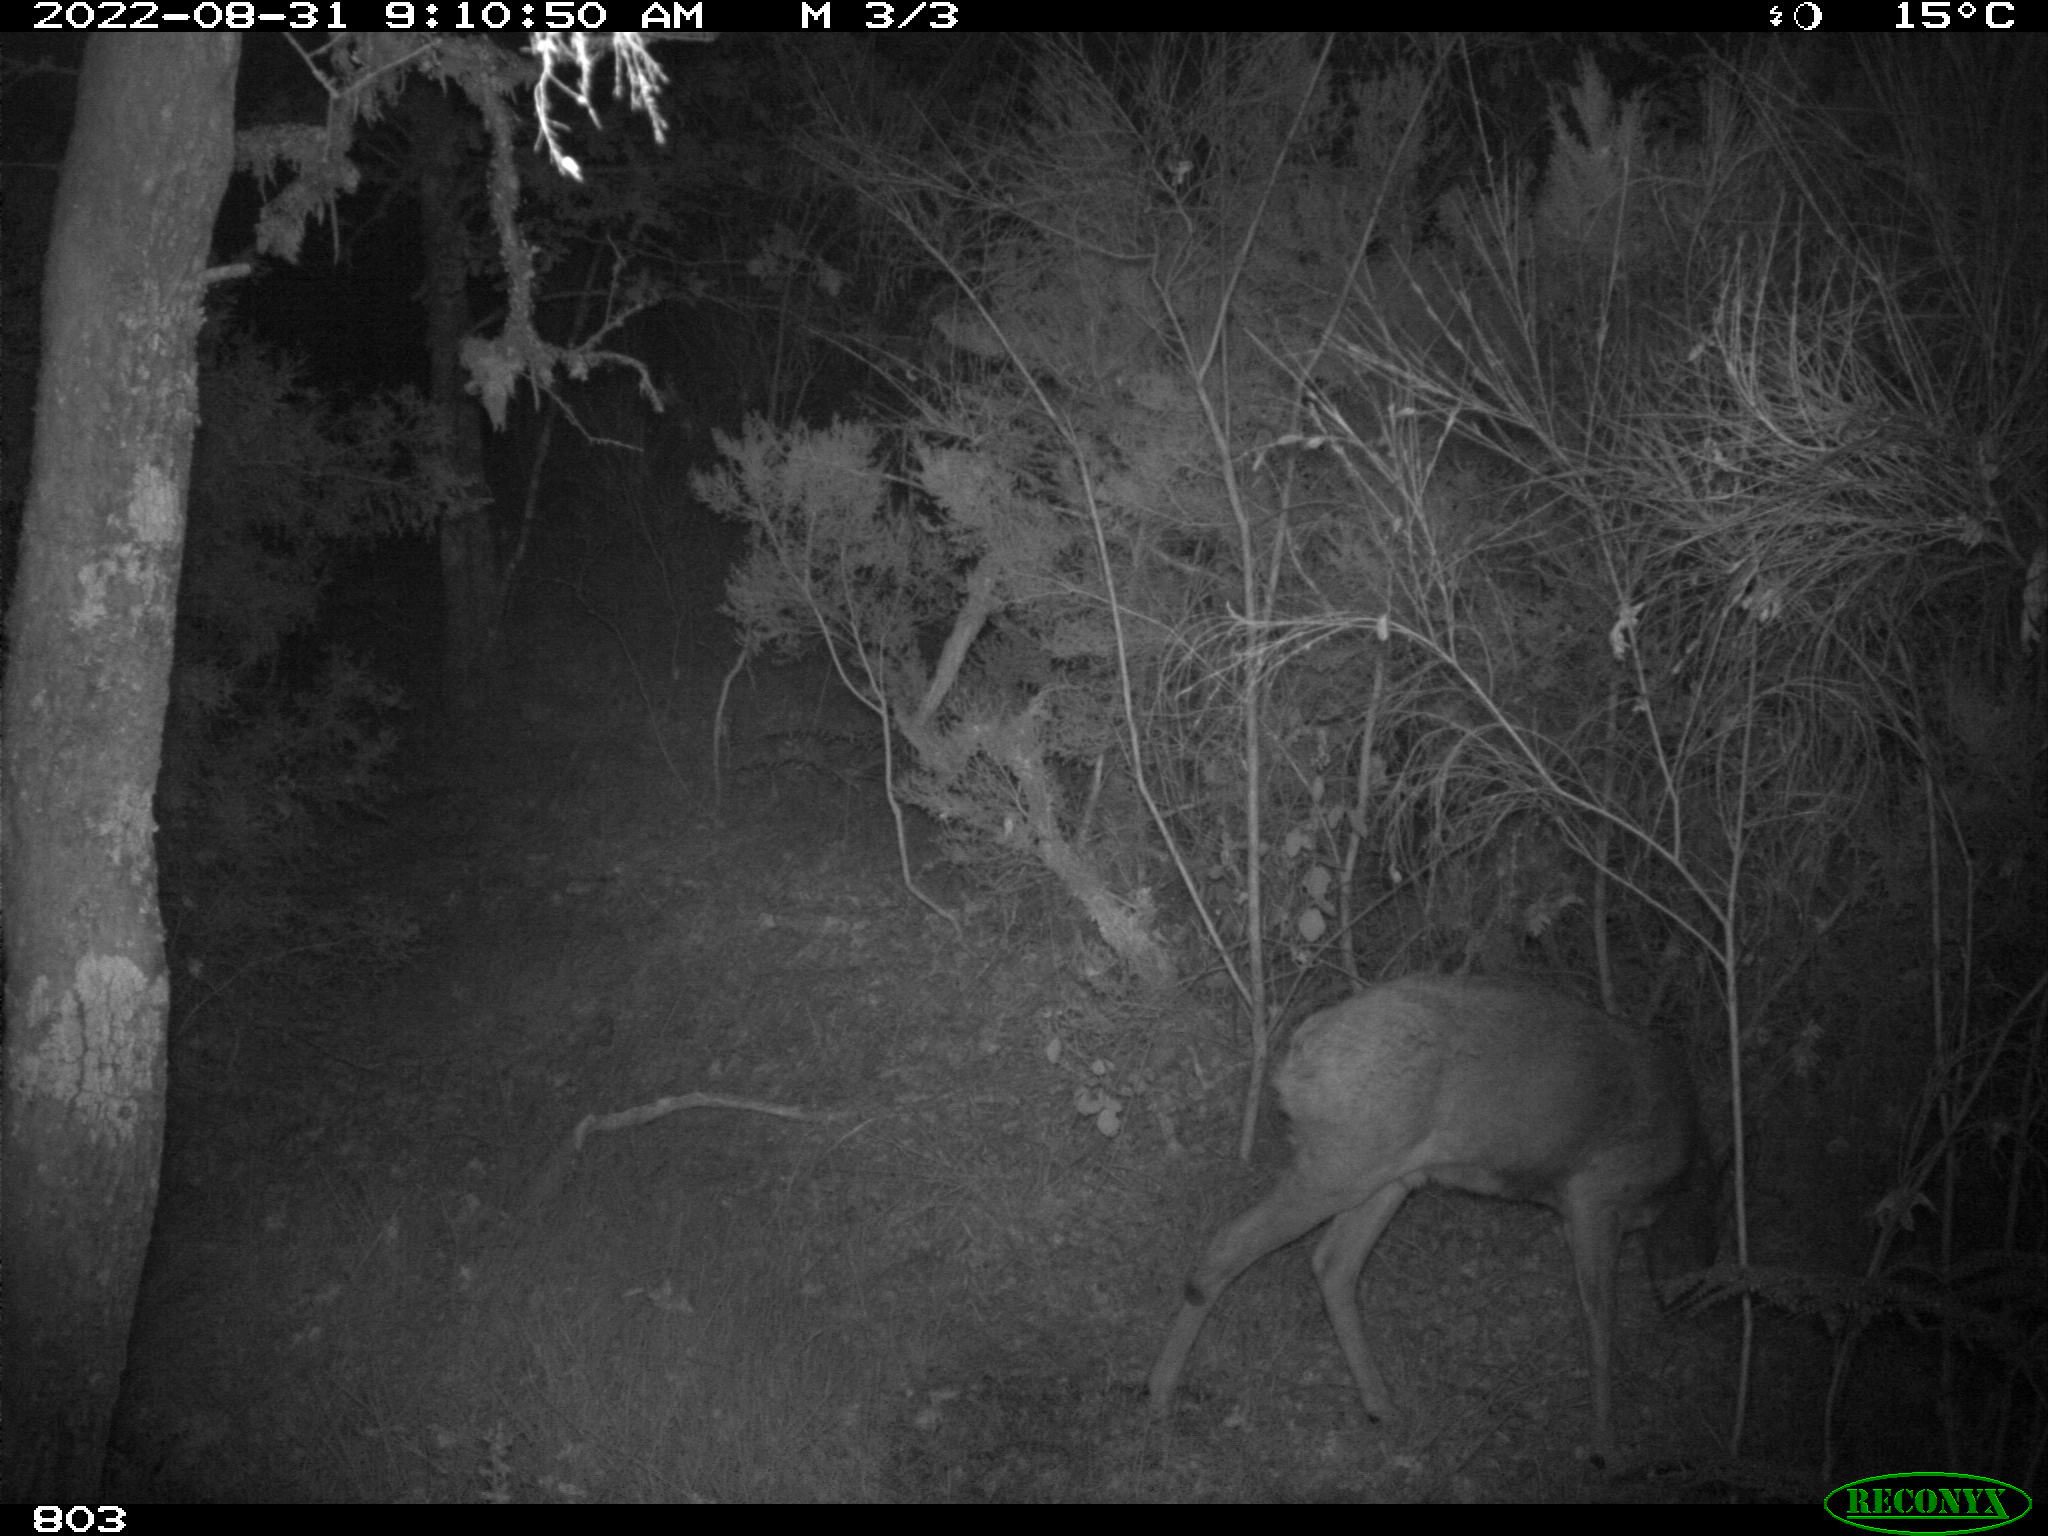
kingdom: Animalia
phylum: Chordata
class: Mammalia
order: Artiodactyla
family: Cervidae
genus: Capreolus
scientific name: Capreolus capreolus
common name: Western roe deer
